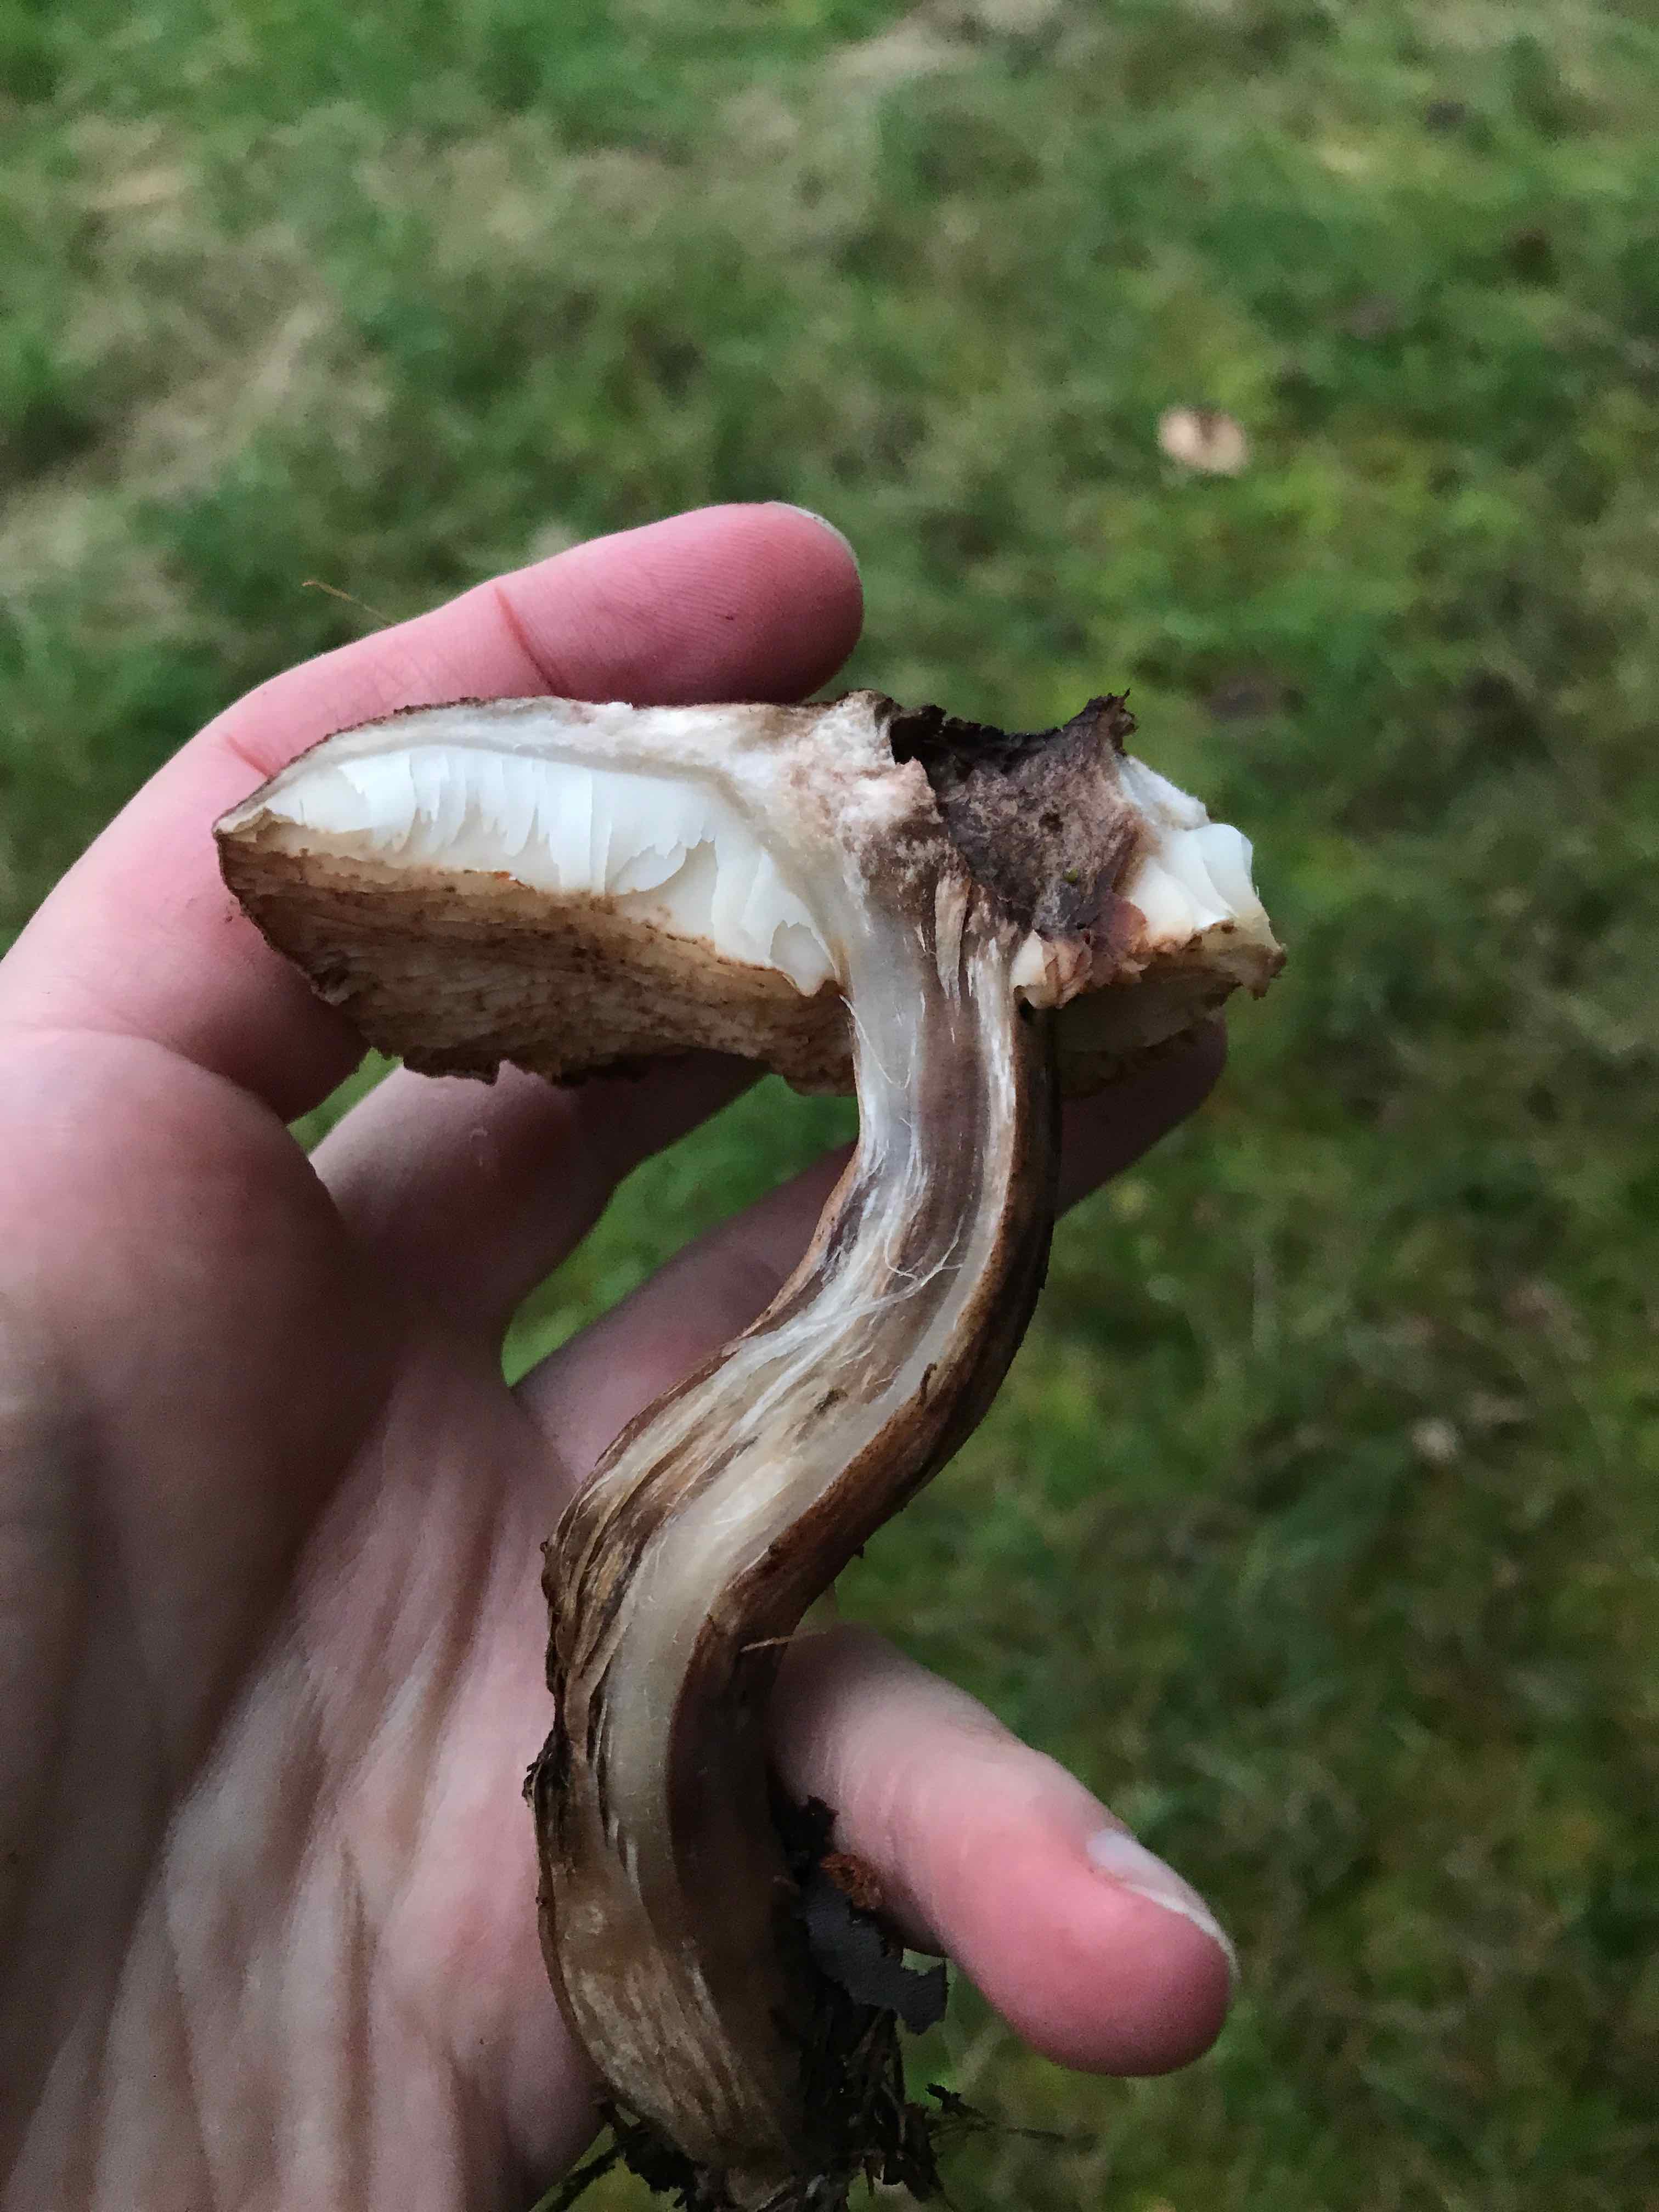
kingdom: Fungi
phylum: Basidiomycota
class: Agaricomycetes
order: Agaricales
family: Tricholomataceae
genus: Tricholoma
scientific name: Tricholoma imbricatum
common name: skællet ridderhat
